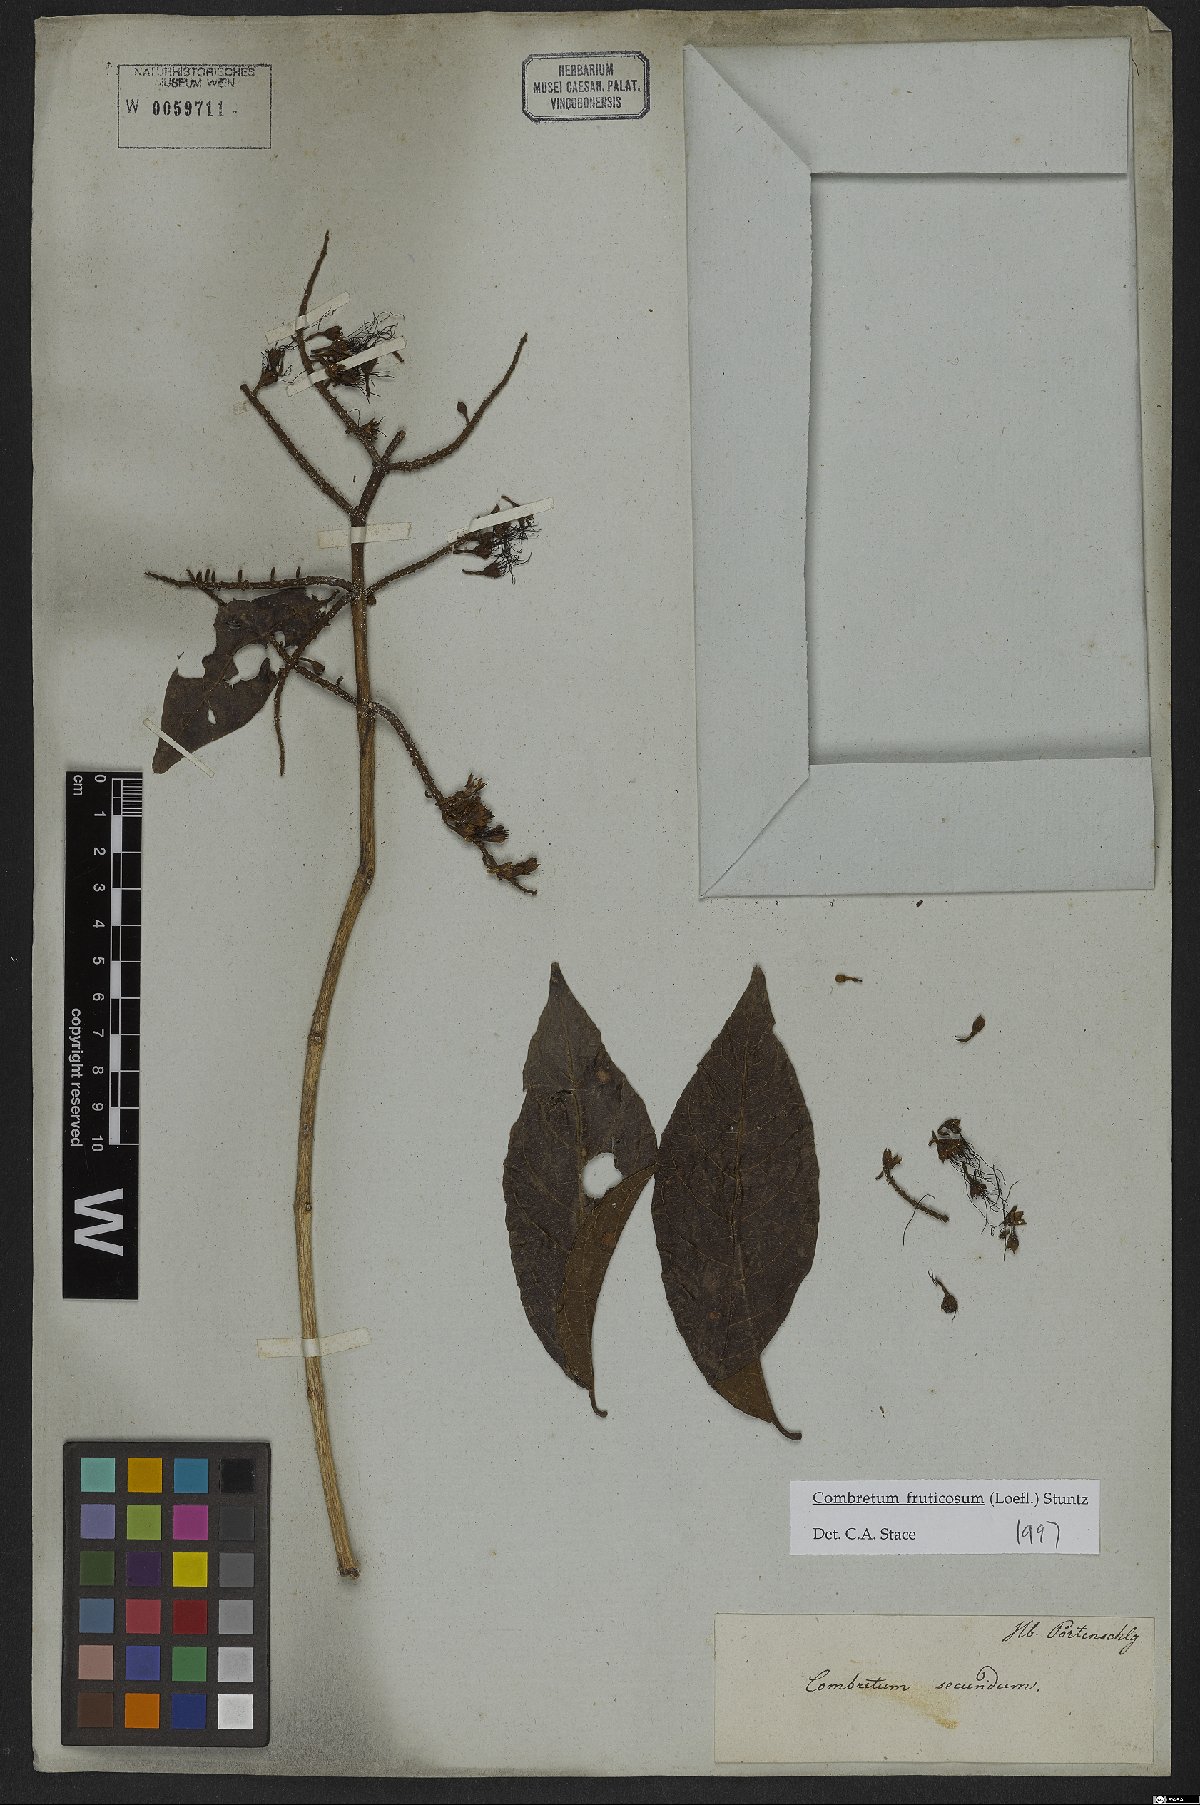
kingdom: Plantae
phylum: Tracheophyta
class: Magnoliopsida
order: Myrtales
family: Combretaceae
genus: Combretum
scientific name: Combretum fruticosum
